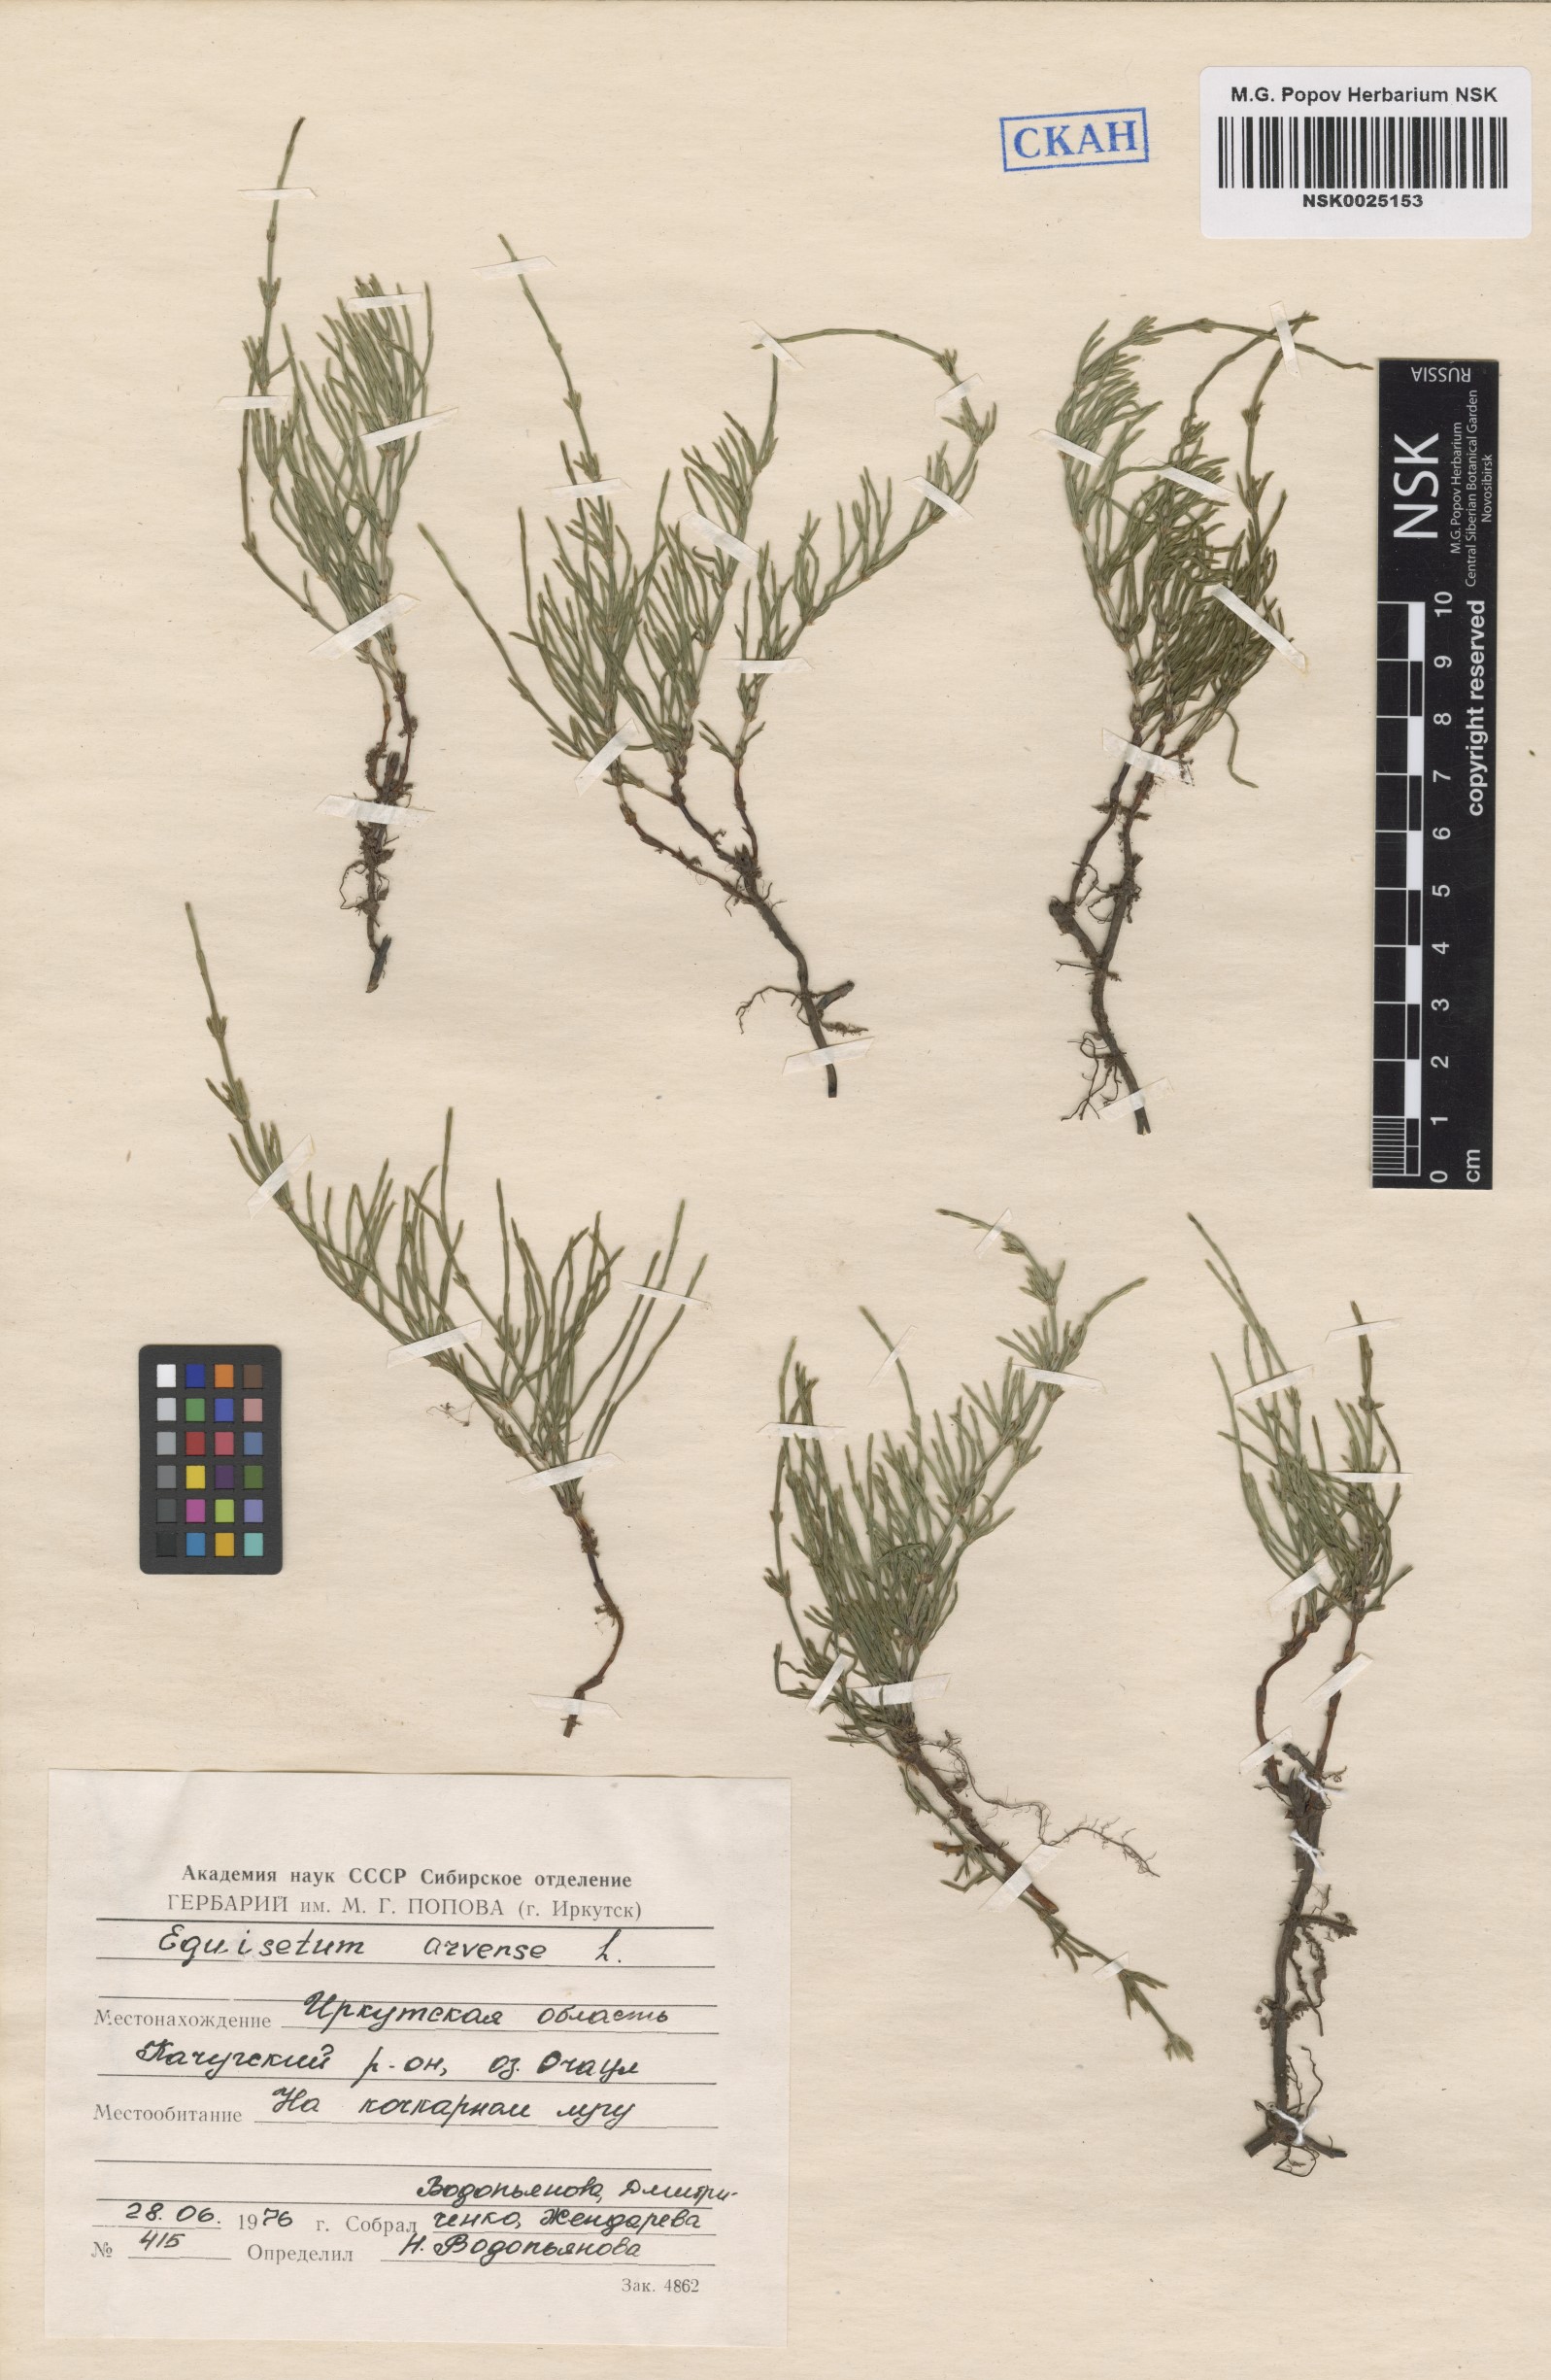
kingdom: Plantae
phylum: Tracheophyta
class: Polypodiopsida
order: Equisetales
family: Equisetaceae
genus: Equisetum
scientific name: Equisetum arvense
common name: Field horsetail
